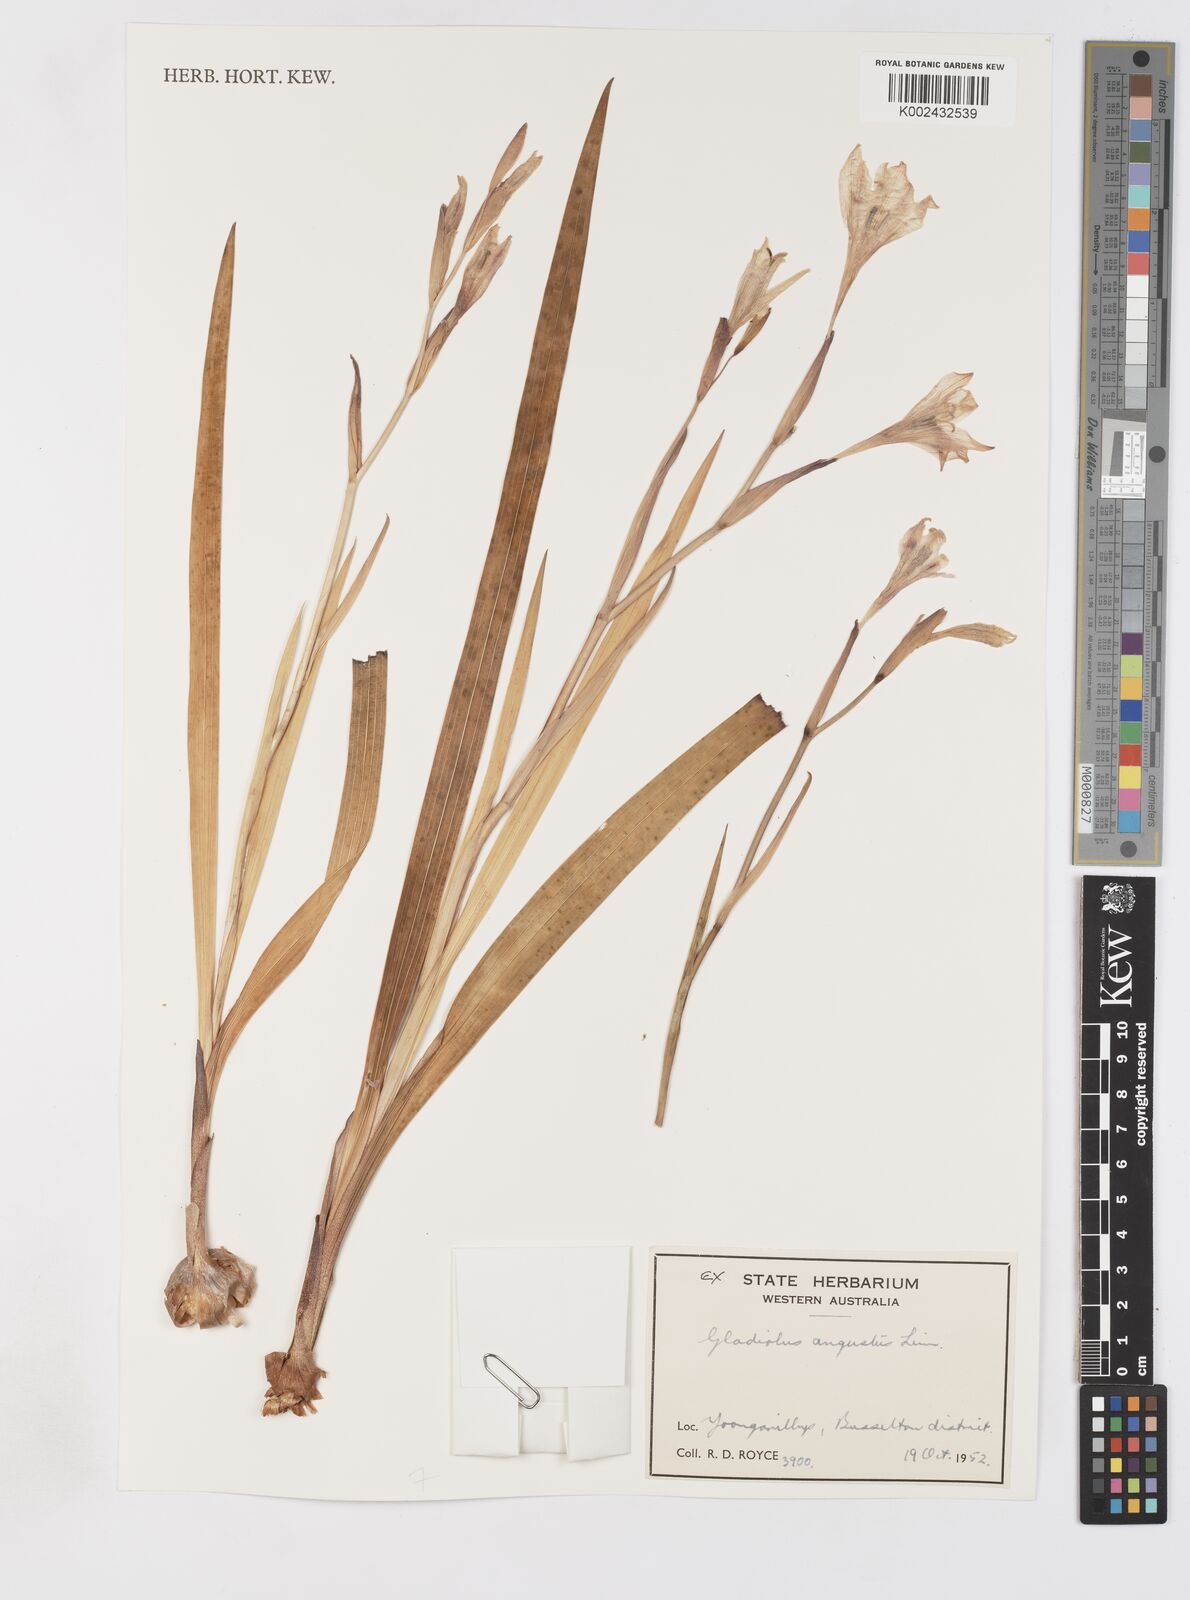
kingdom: Plantae
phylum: Tracheophyta
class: Liliopsida
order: Asparagales
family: Iridaceae
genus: Gladiolus
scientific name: Gladiolus angustus
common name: Painted-lady
